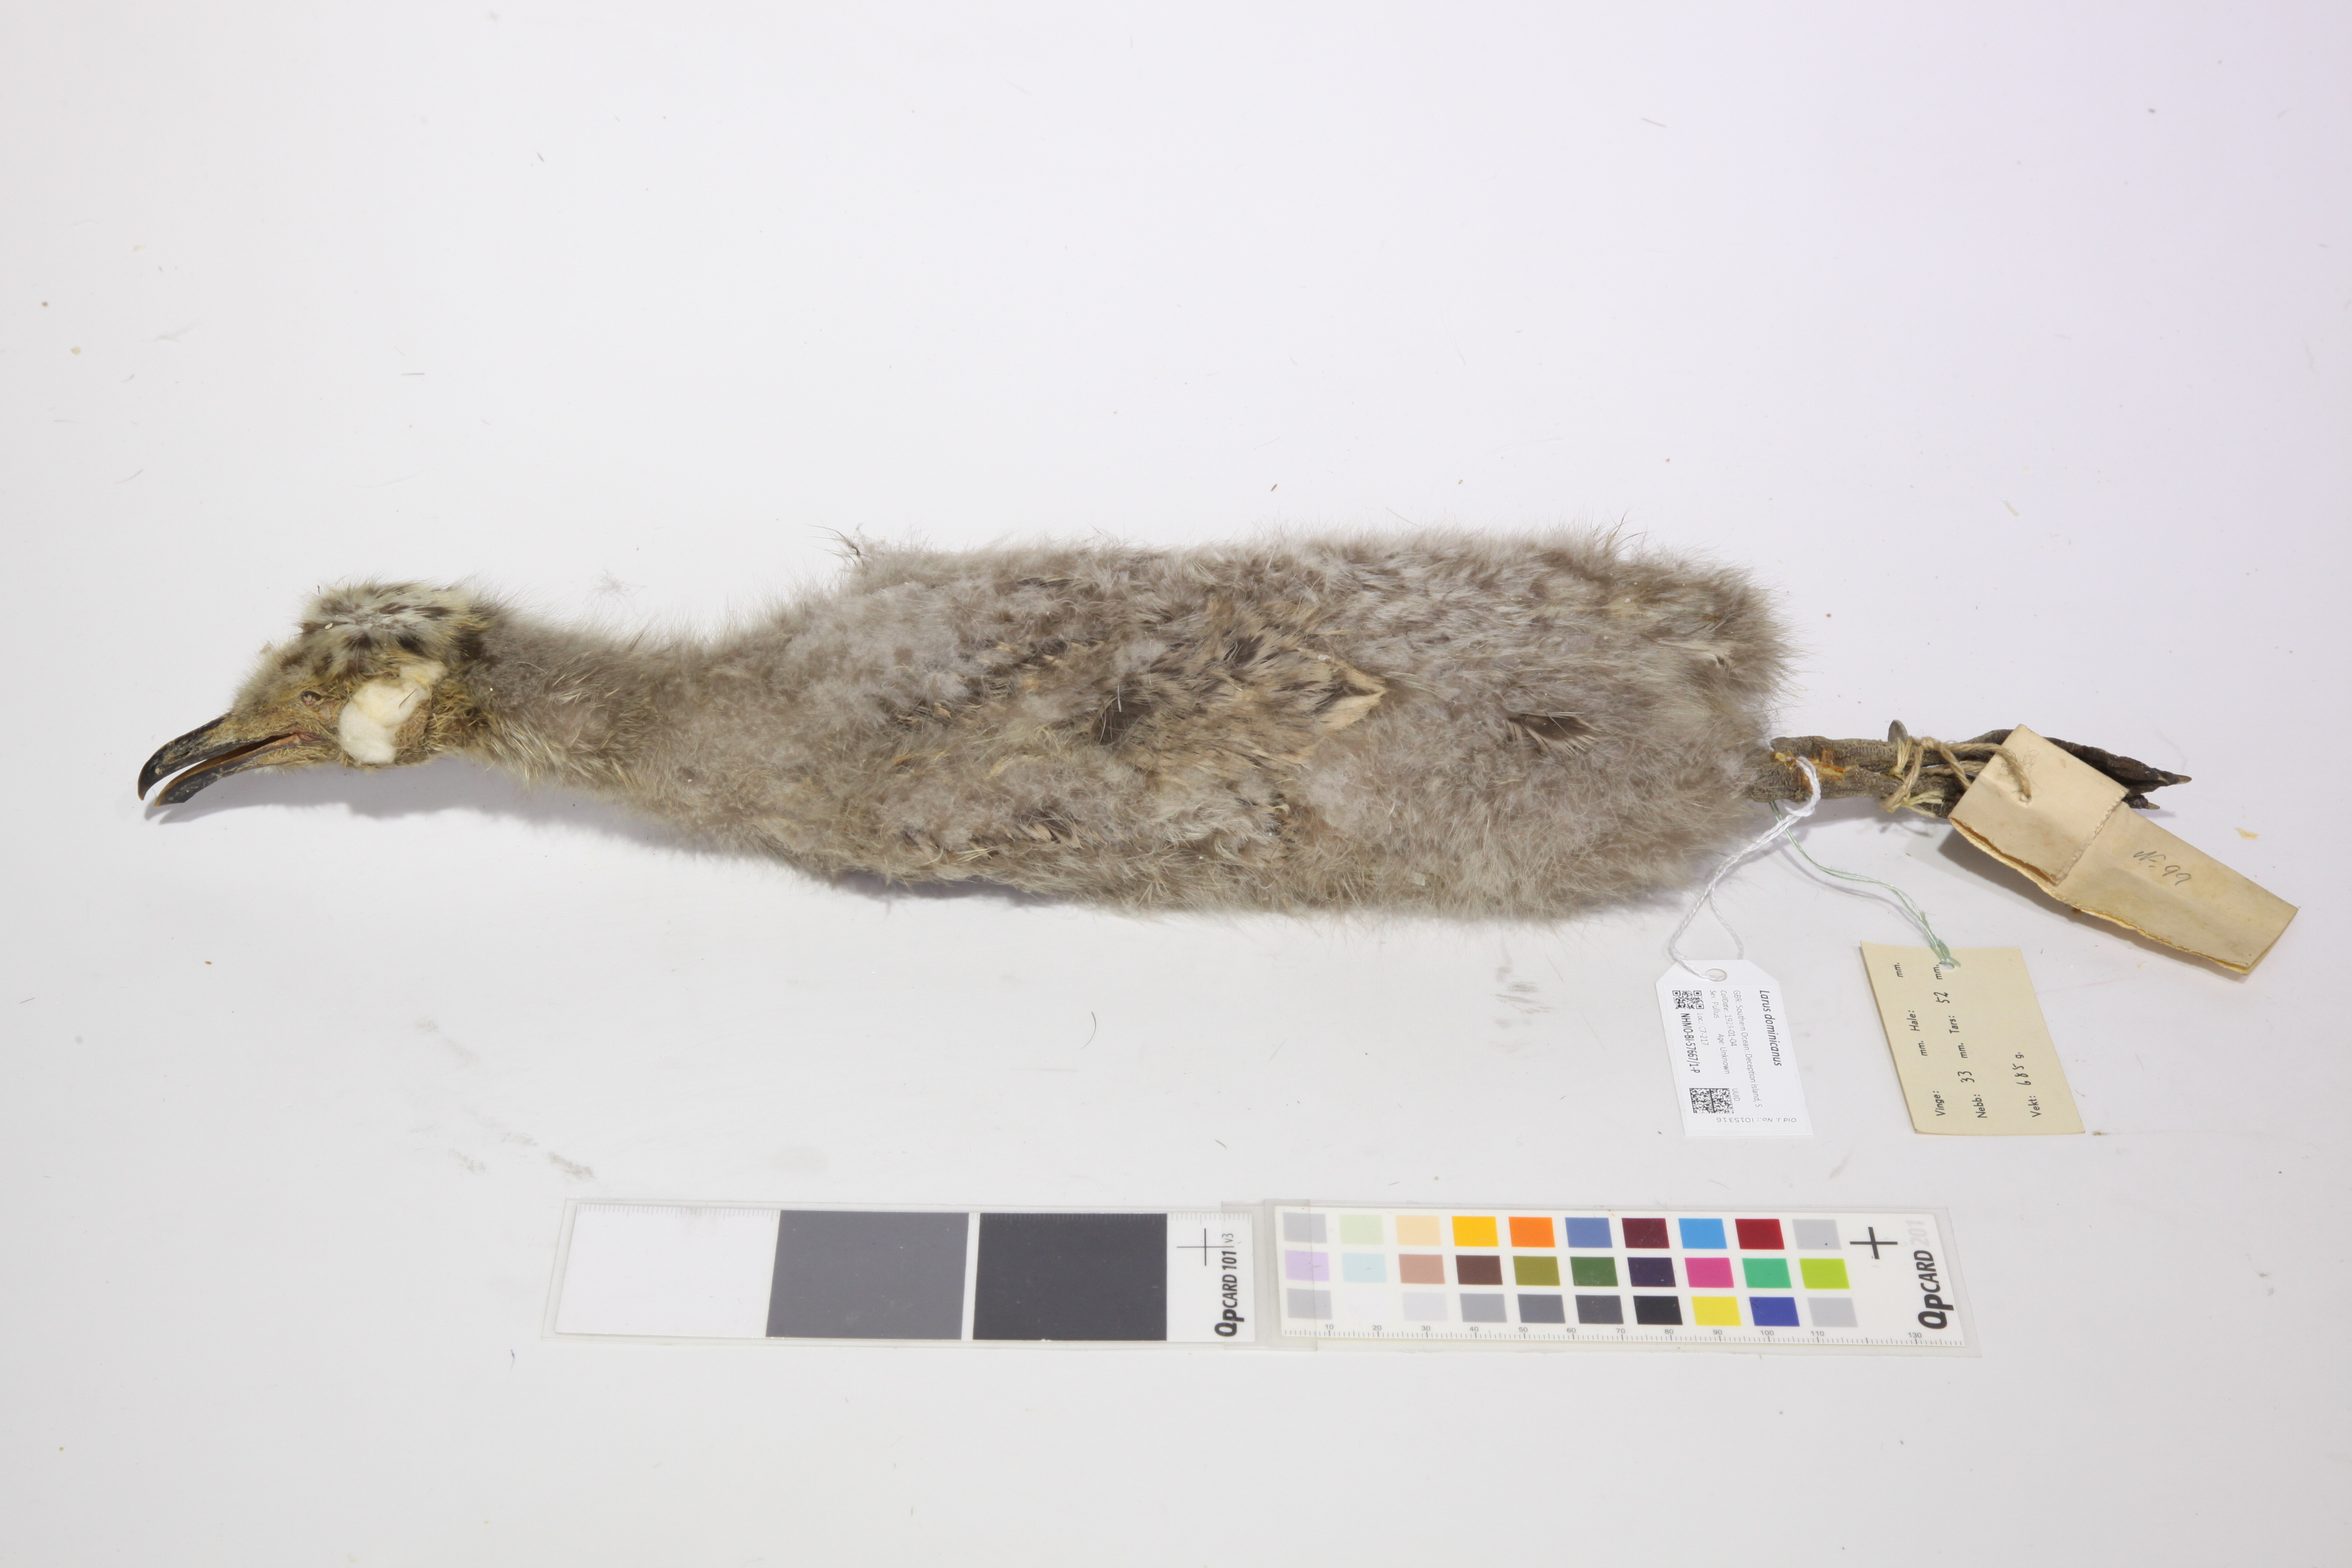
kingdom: Animalia
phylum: Chordata
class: Aves
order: Charadriiformes
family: Laridae
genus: Larus
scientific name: Larus dominicanus
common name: Kelp gull
